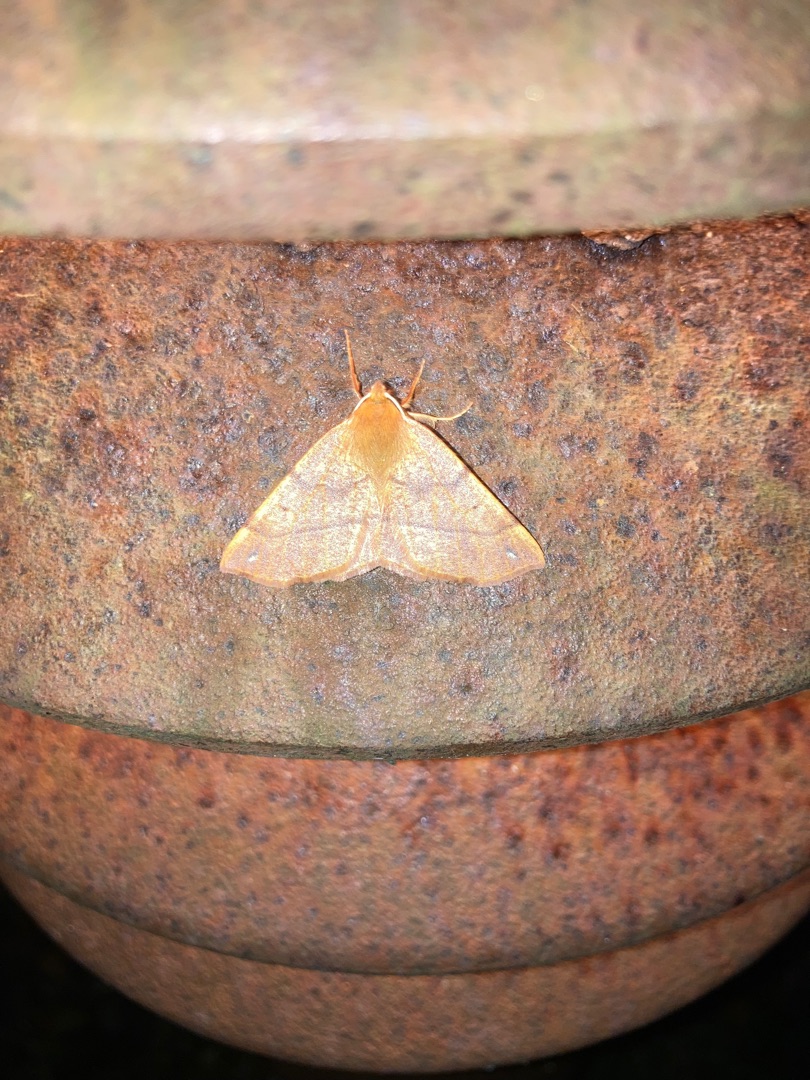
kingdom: Animalia
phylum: Arthropoda
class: Insecta
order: Lepidoptera
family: Geometridae
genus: Colotois
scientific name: Colotois pennaria
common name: Løvfaldsmåler
